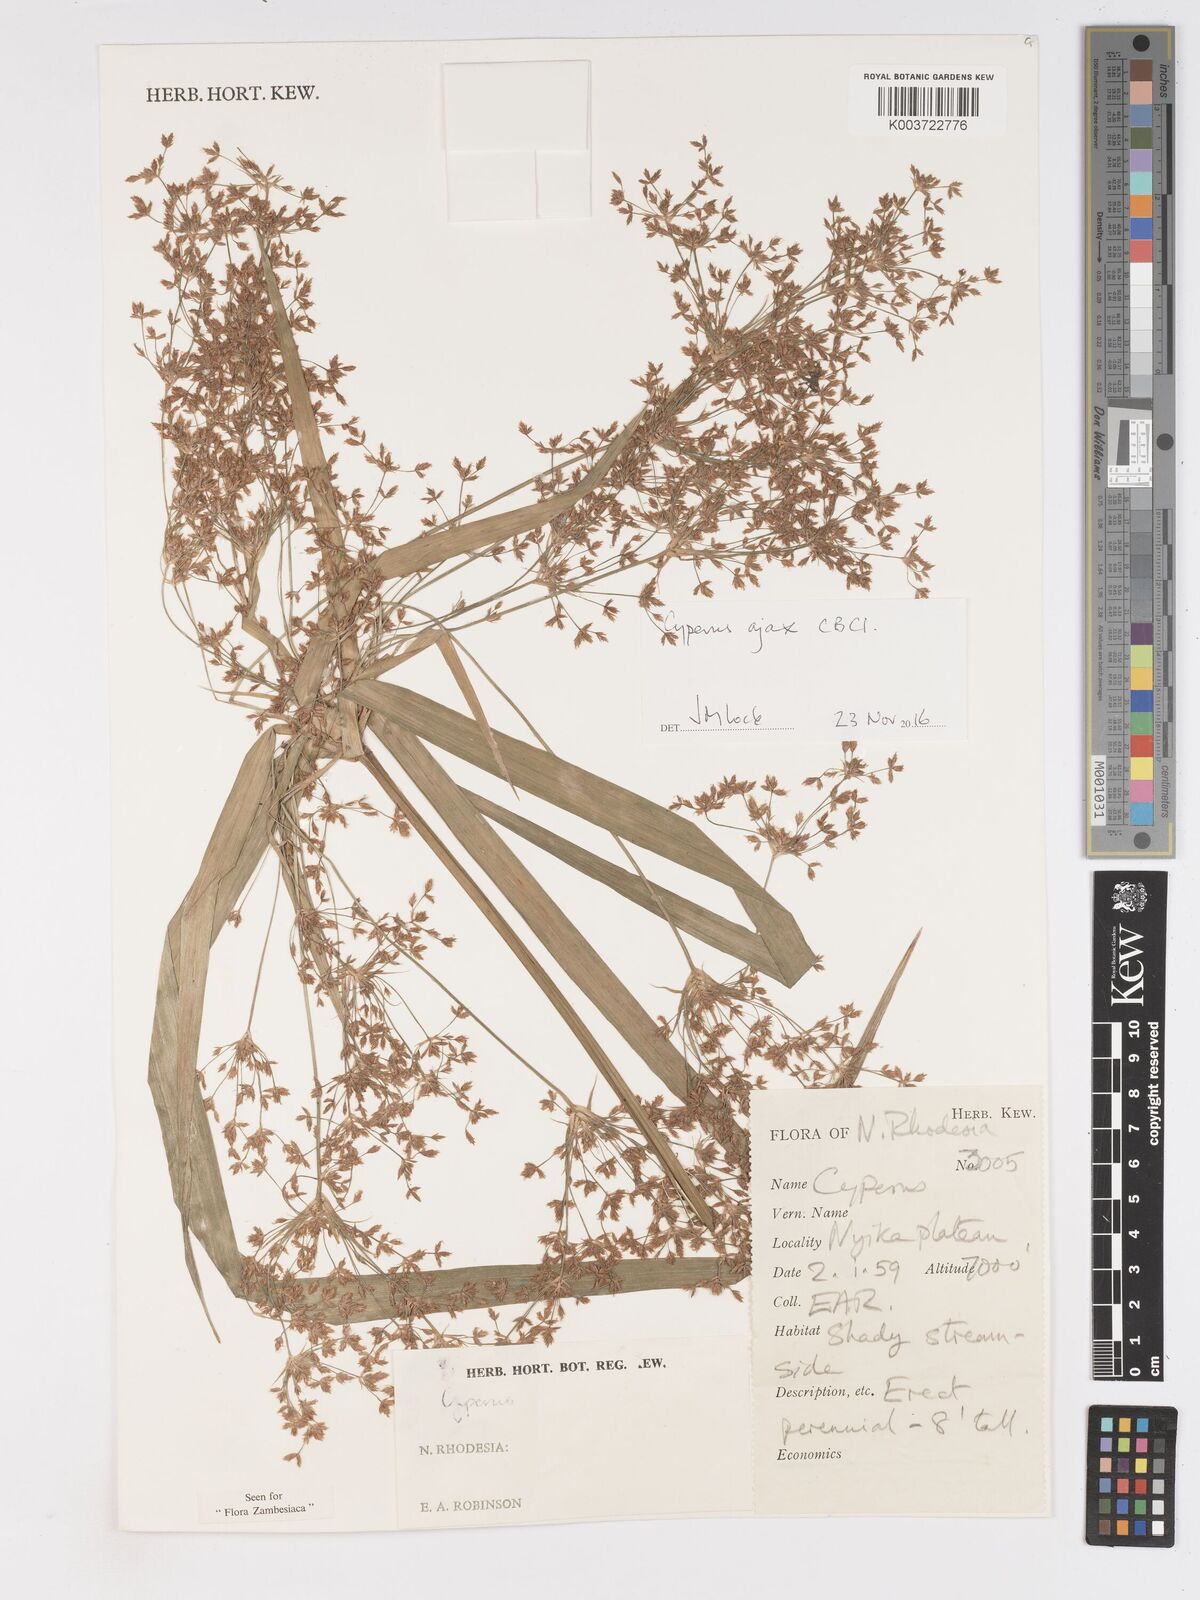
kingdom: Plantae
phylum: Tracheophyta
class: Liliopsida
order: Poales
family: Cyperaceae
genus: Cyperus
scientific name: Cyperus ajax
